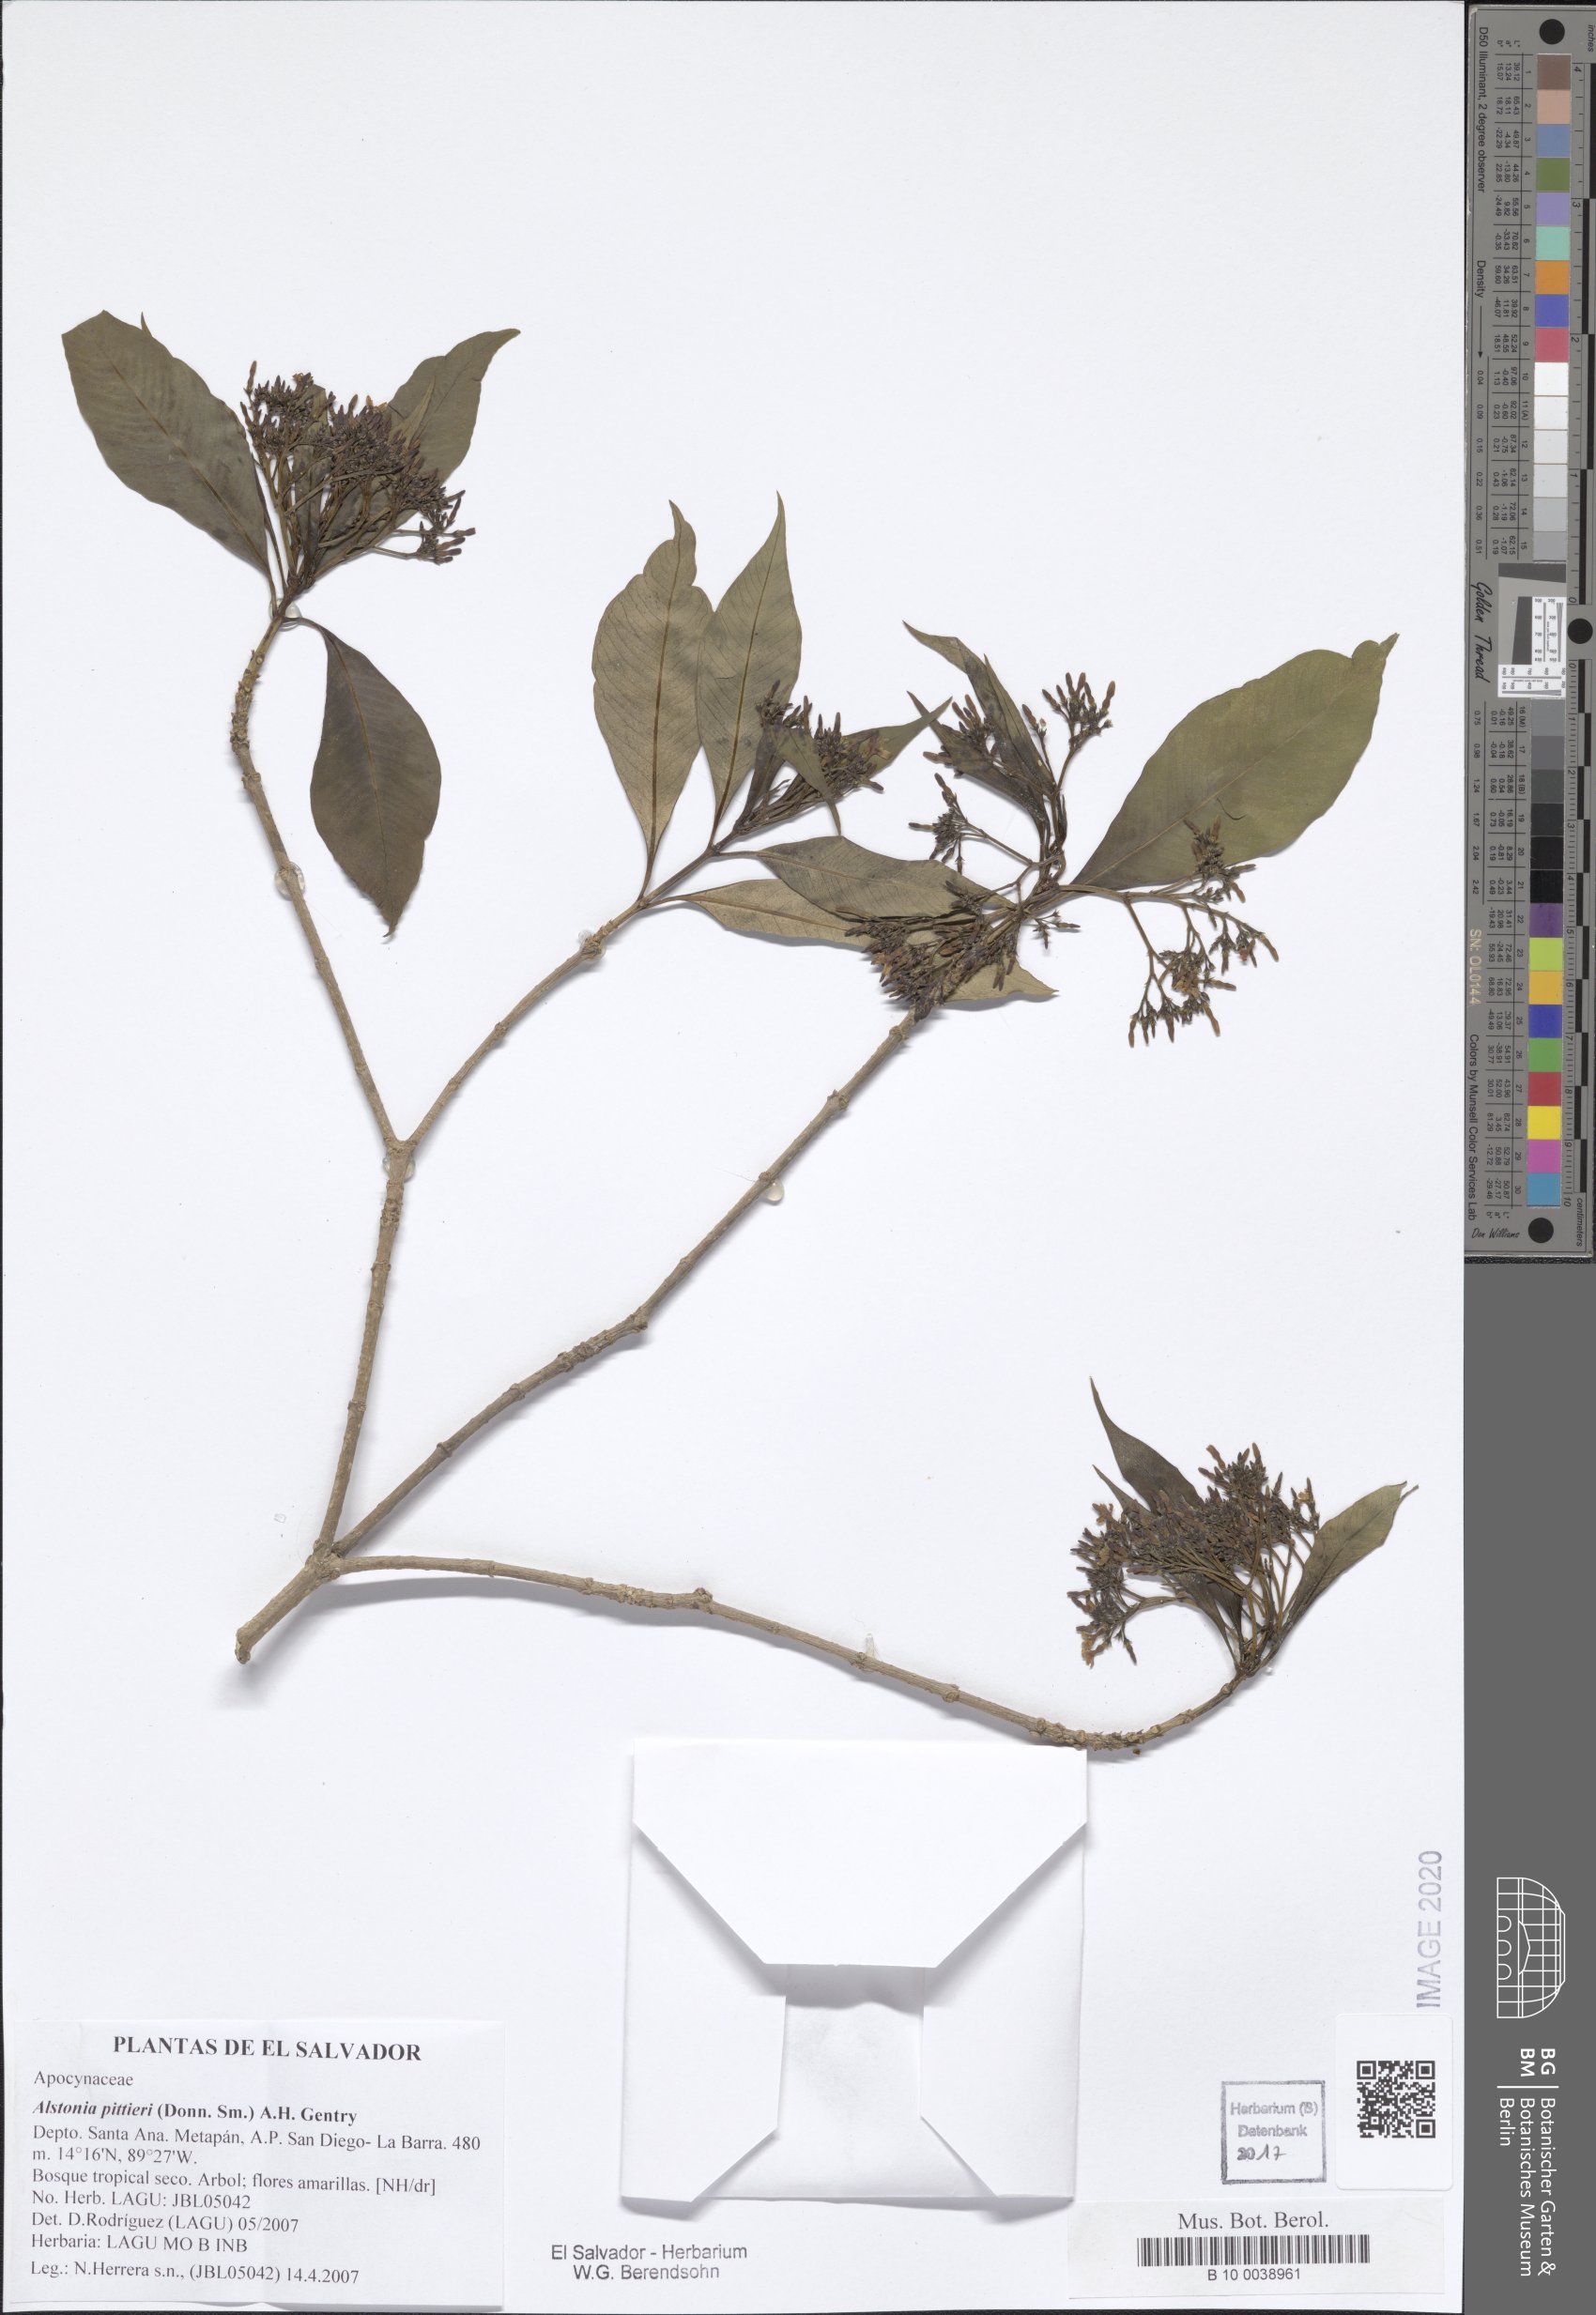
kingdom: Plantae
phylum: Tracheophyta
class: Magnoliopsida
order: Gentianales
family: Apocynaceae
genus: Tonduzia
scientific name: Tonduzia longifolia
